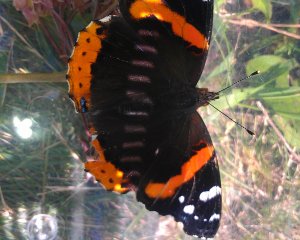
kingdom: Animalia
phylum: Arthropoda
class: Insecta
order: Lepidoptera
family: Nymphalidae
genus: Vanessa
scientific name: Vanessa atalanta
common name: Red Admiral
